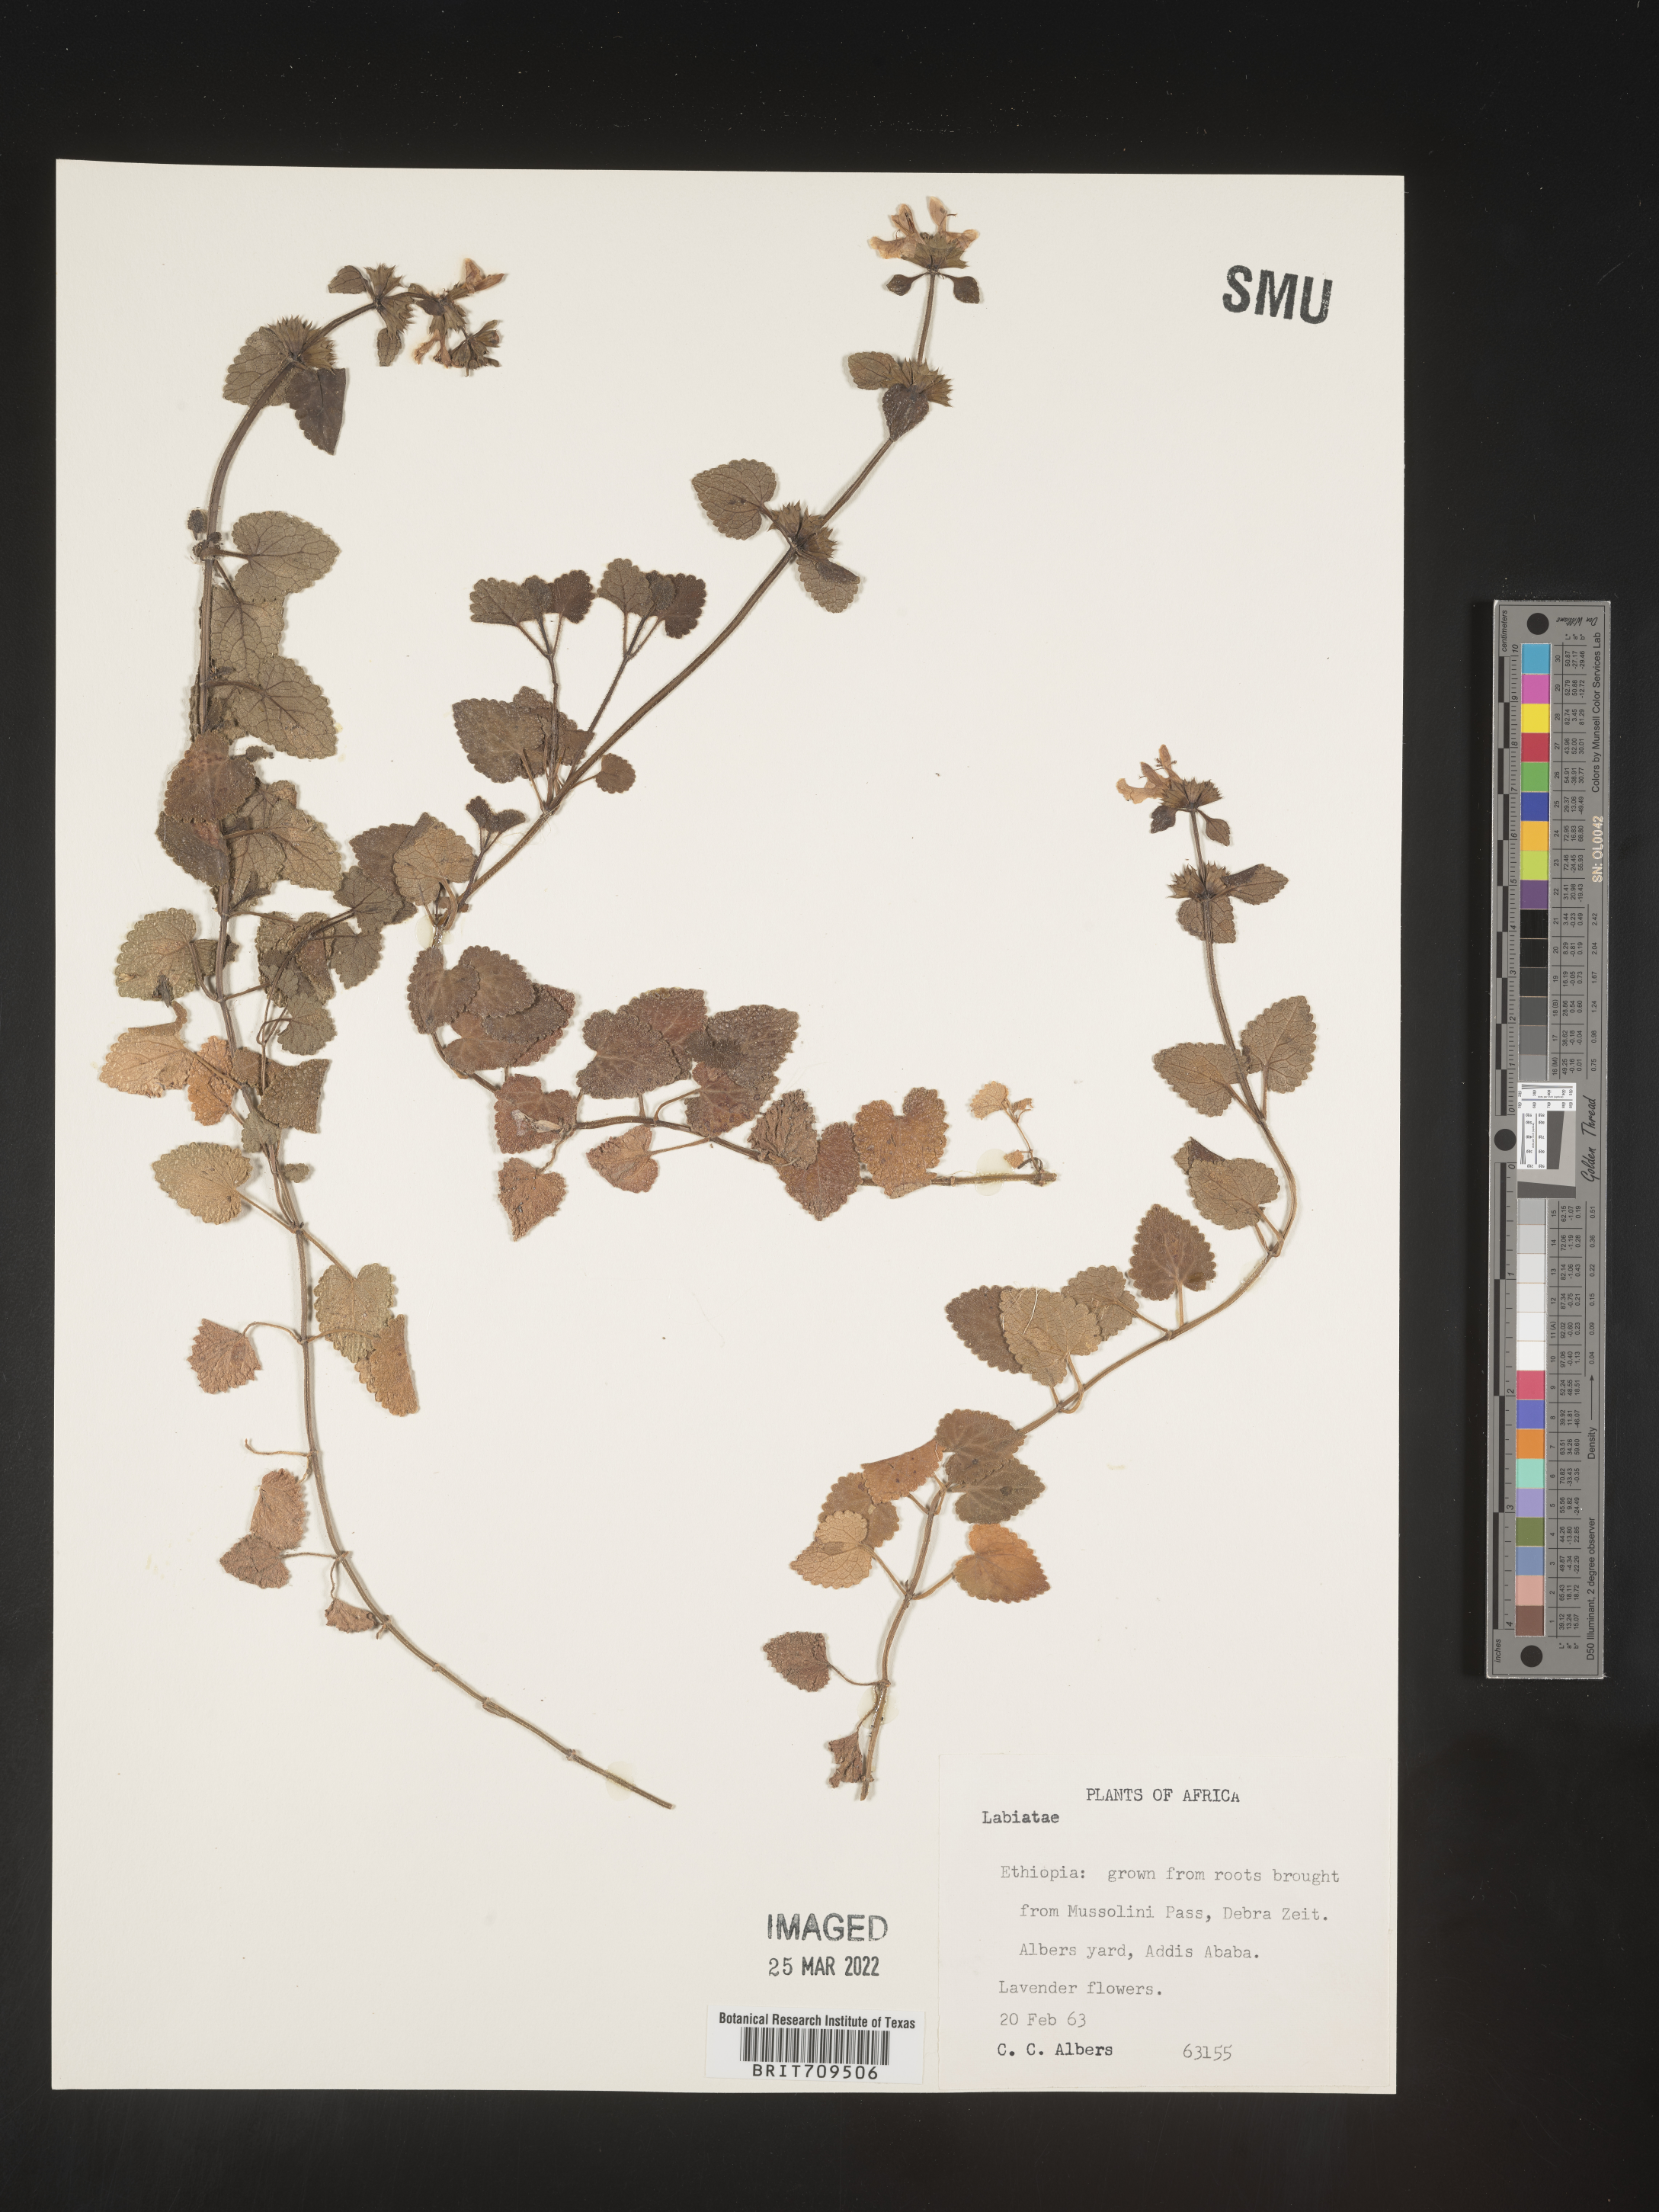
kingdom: Plantae
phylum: Tracheophyta
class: Magnoliopsida
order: Lamiales
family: Lamiaceae
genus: Stachys
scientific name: Stachys
